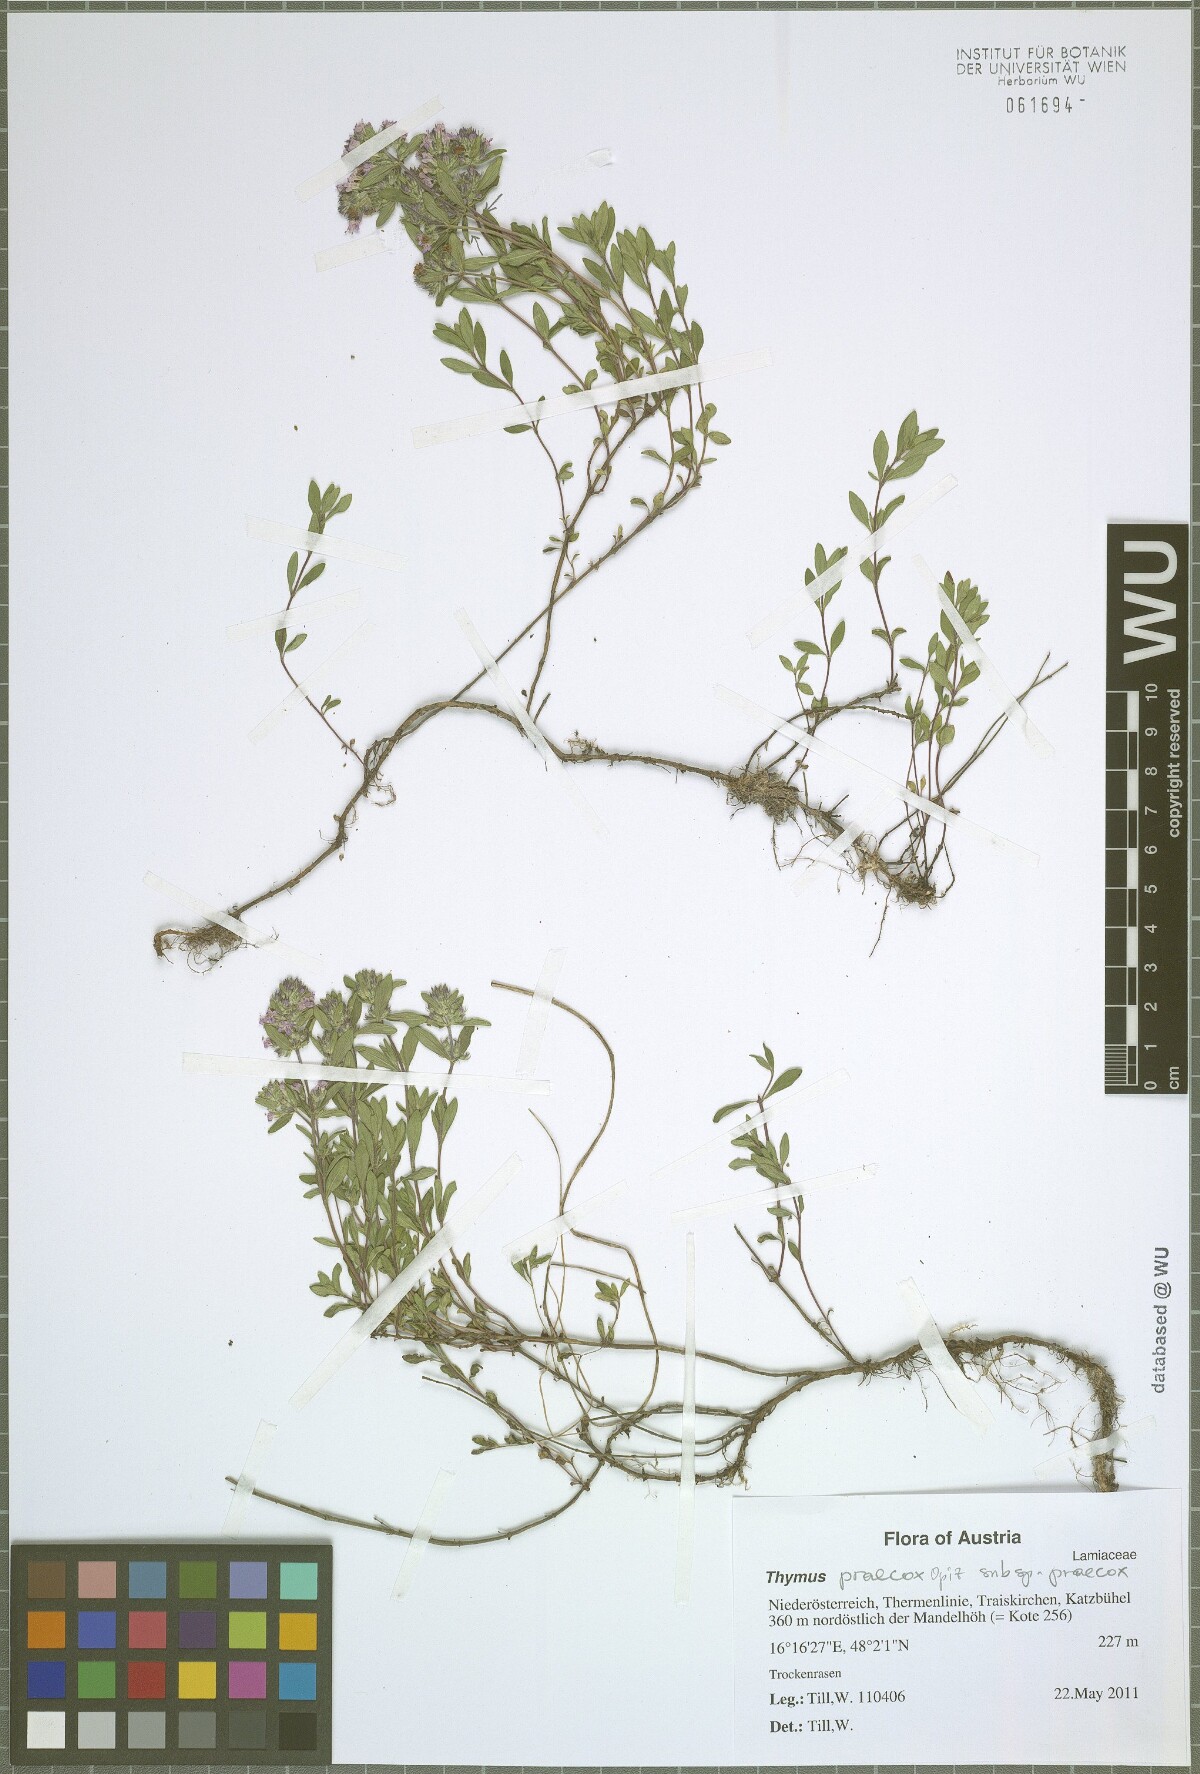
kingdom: Plantae
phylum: Tracheophyta
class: Magnoliopsida
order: Lamiales
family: Lamiaceae
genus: Thymus
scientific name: Thymus odoratissimus
